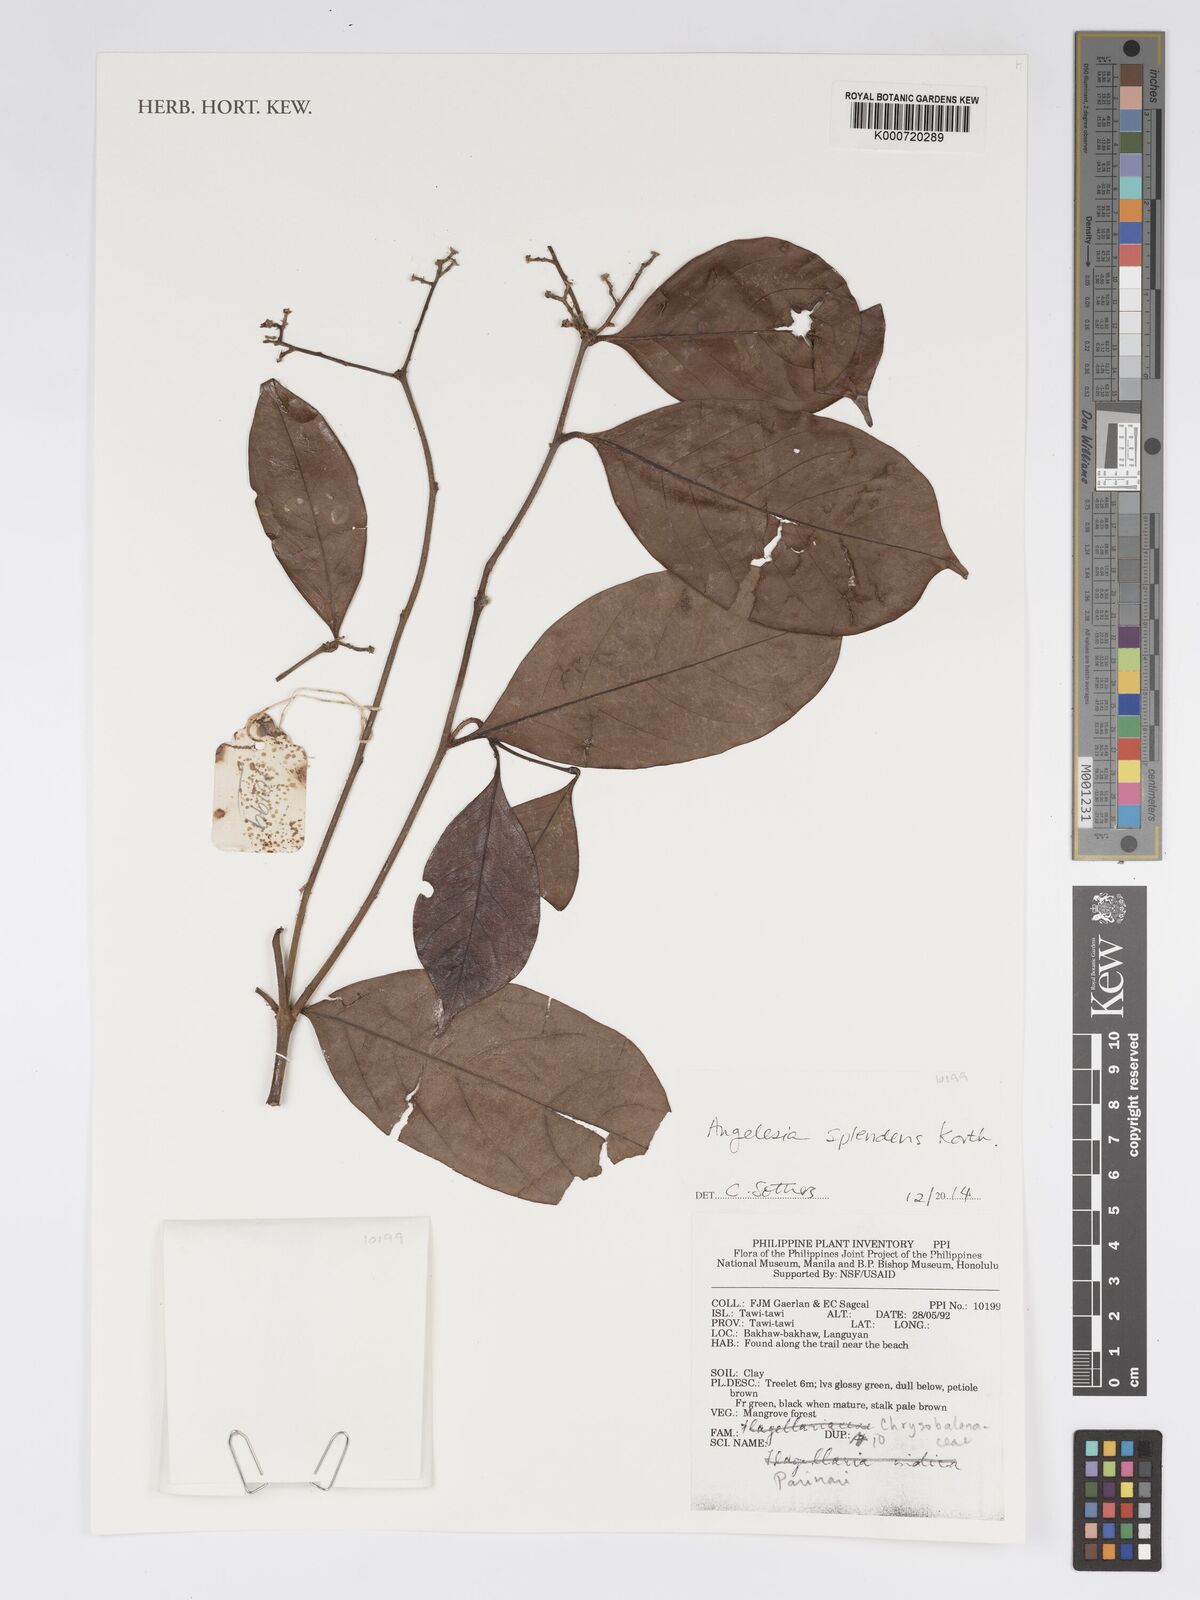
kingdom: Plantae
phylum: Tracheophyta
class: Magnoliopsida
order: Malpighiales
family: Chrysobalanaceae
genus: Angelesia
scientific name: Angelesia splendens
